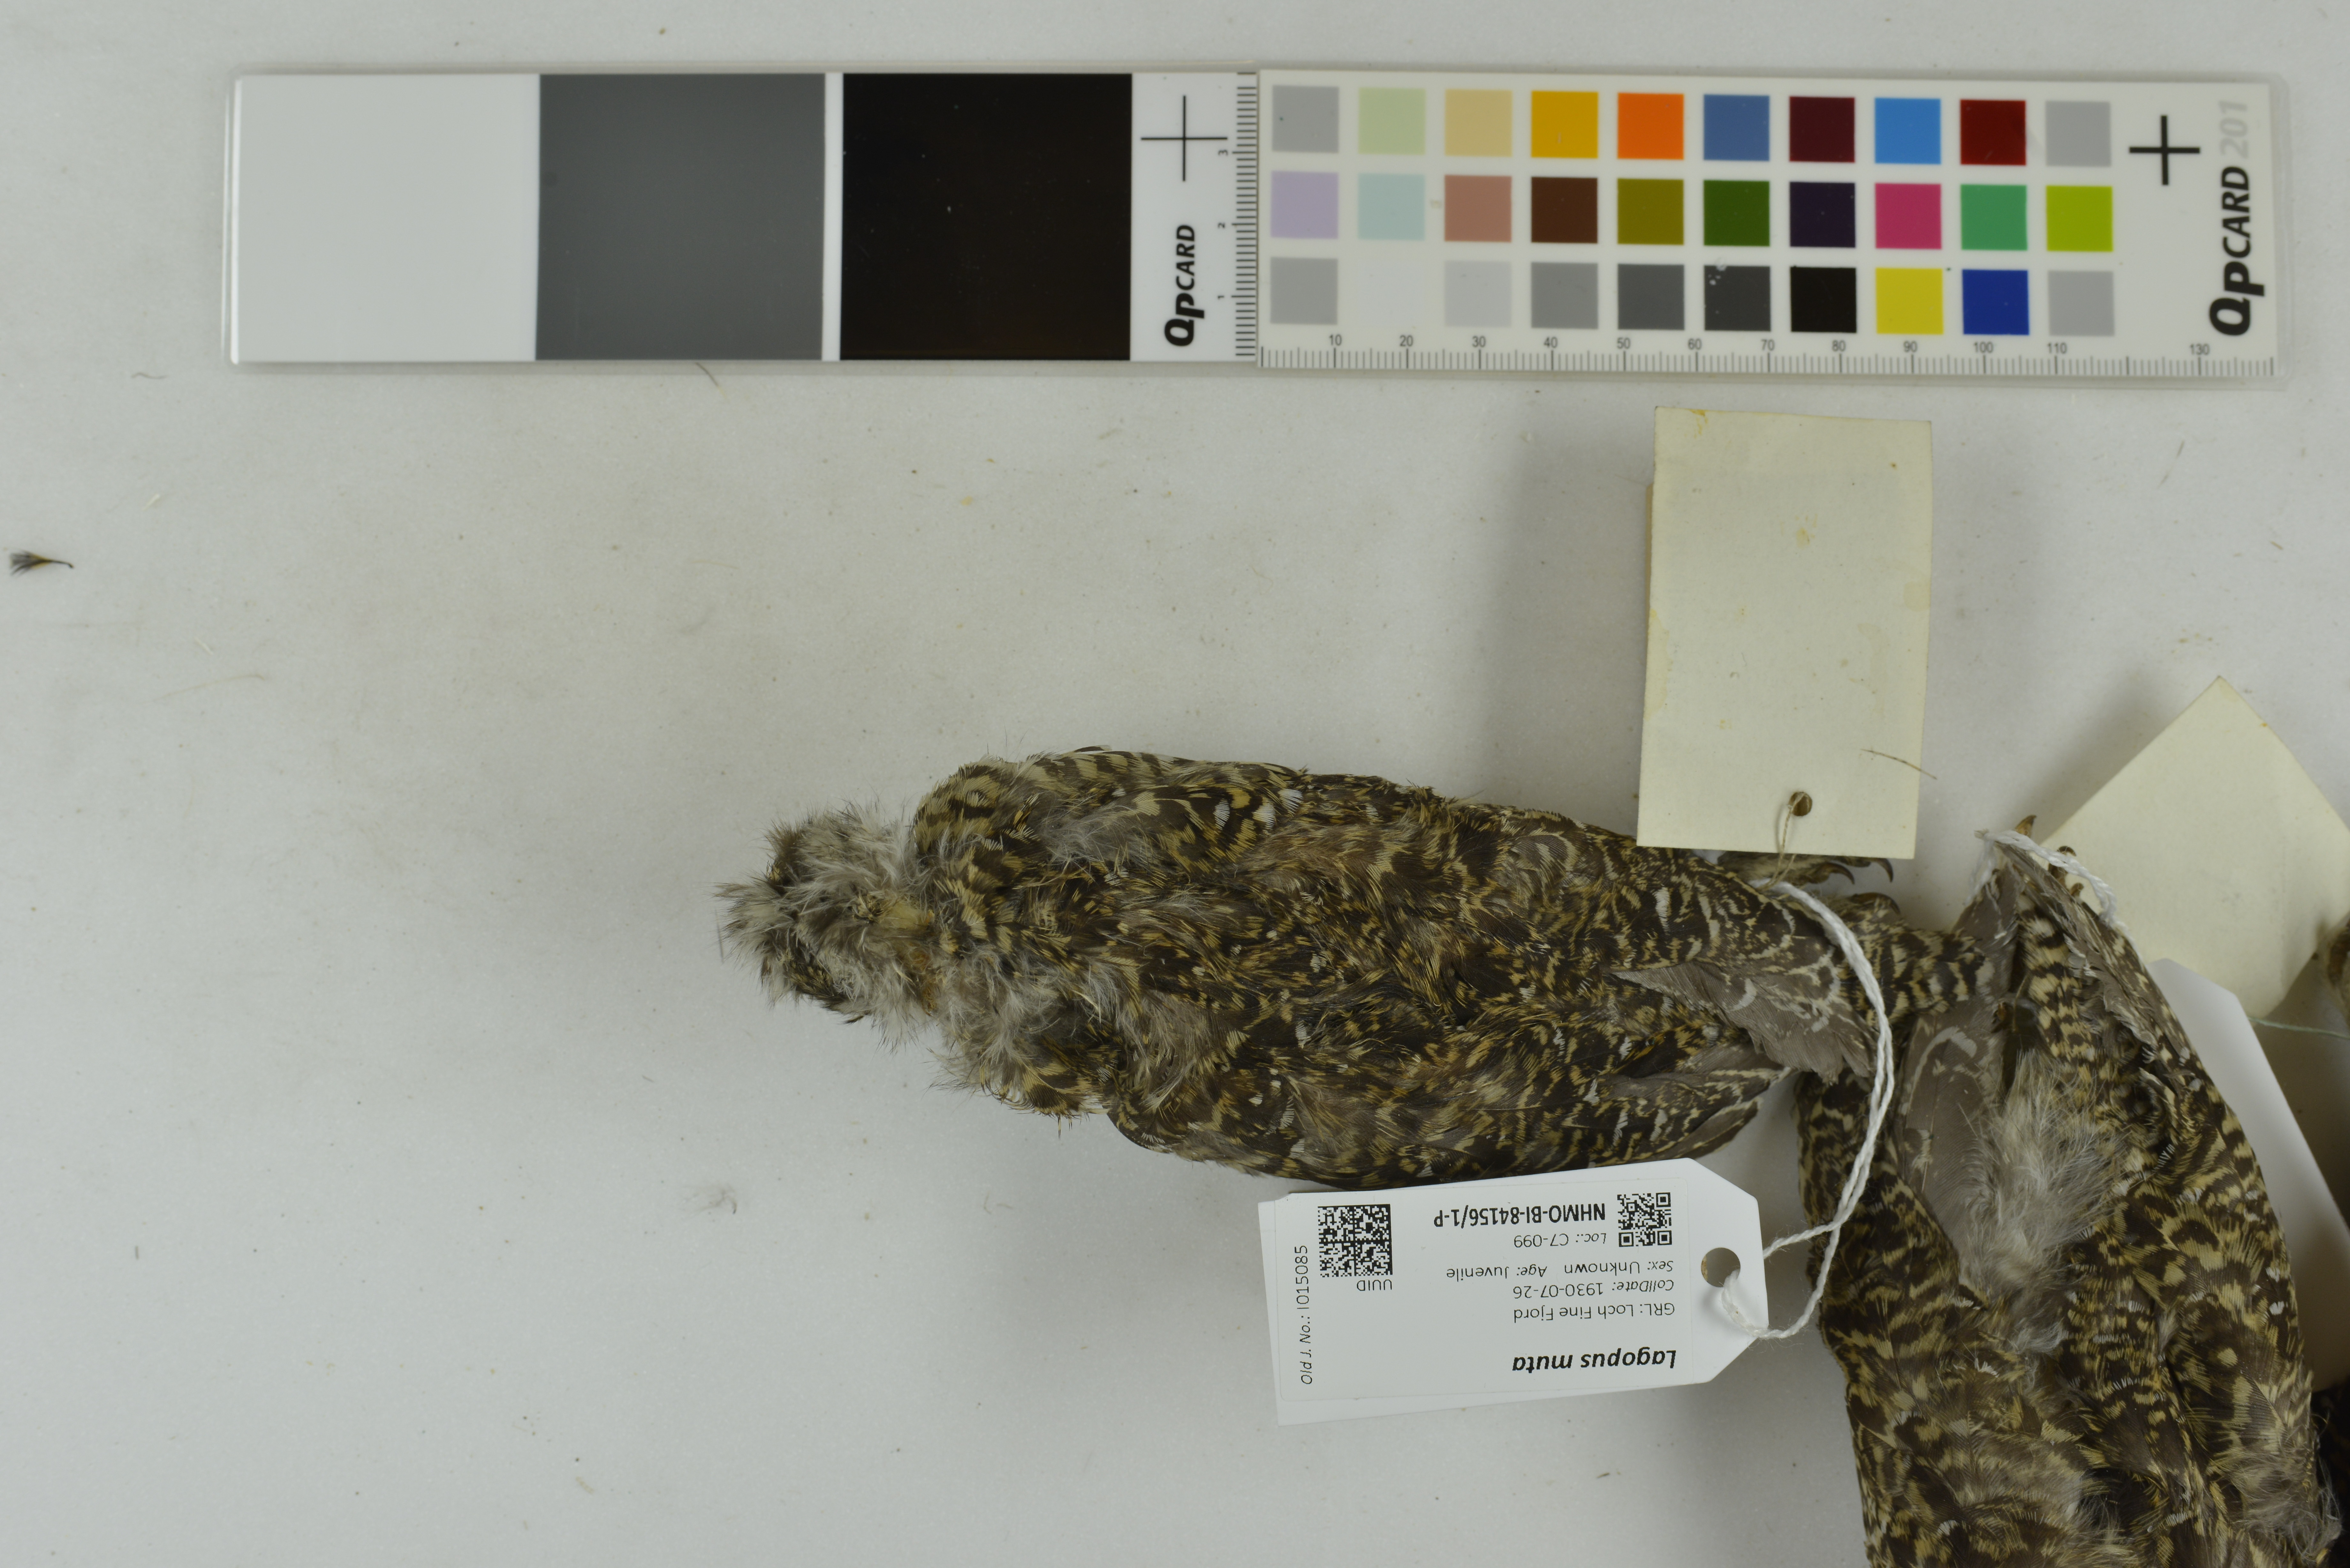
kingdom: Animalia
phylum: Chordata
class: Aves
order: Galliformes
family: Phasianidae
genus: Lagopus
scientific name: Lagopus muta
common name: Rock ptarmigan
